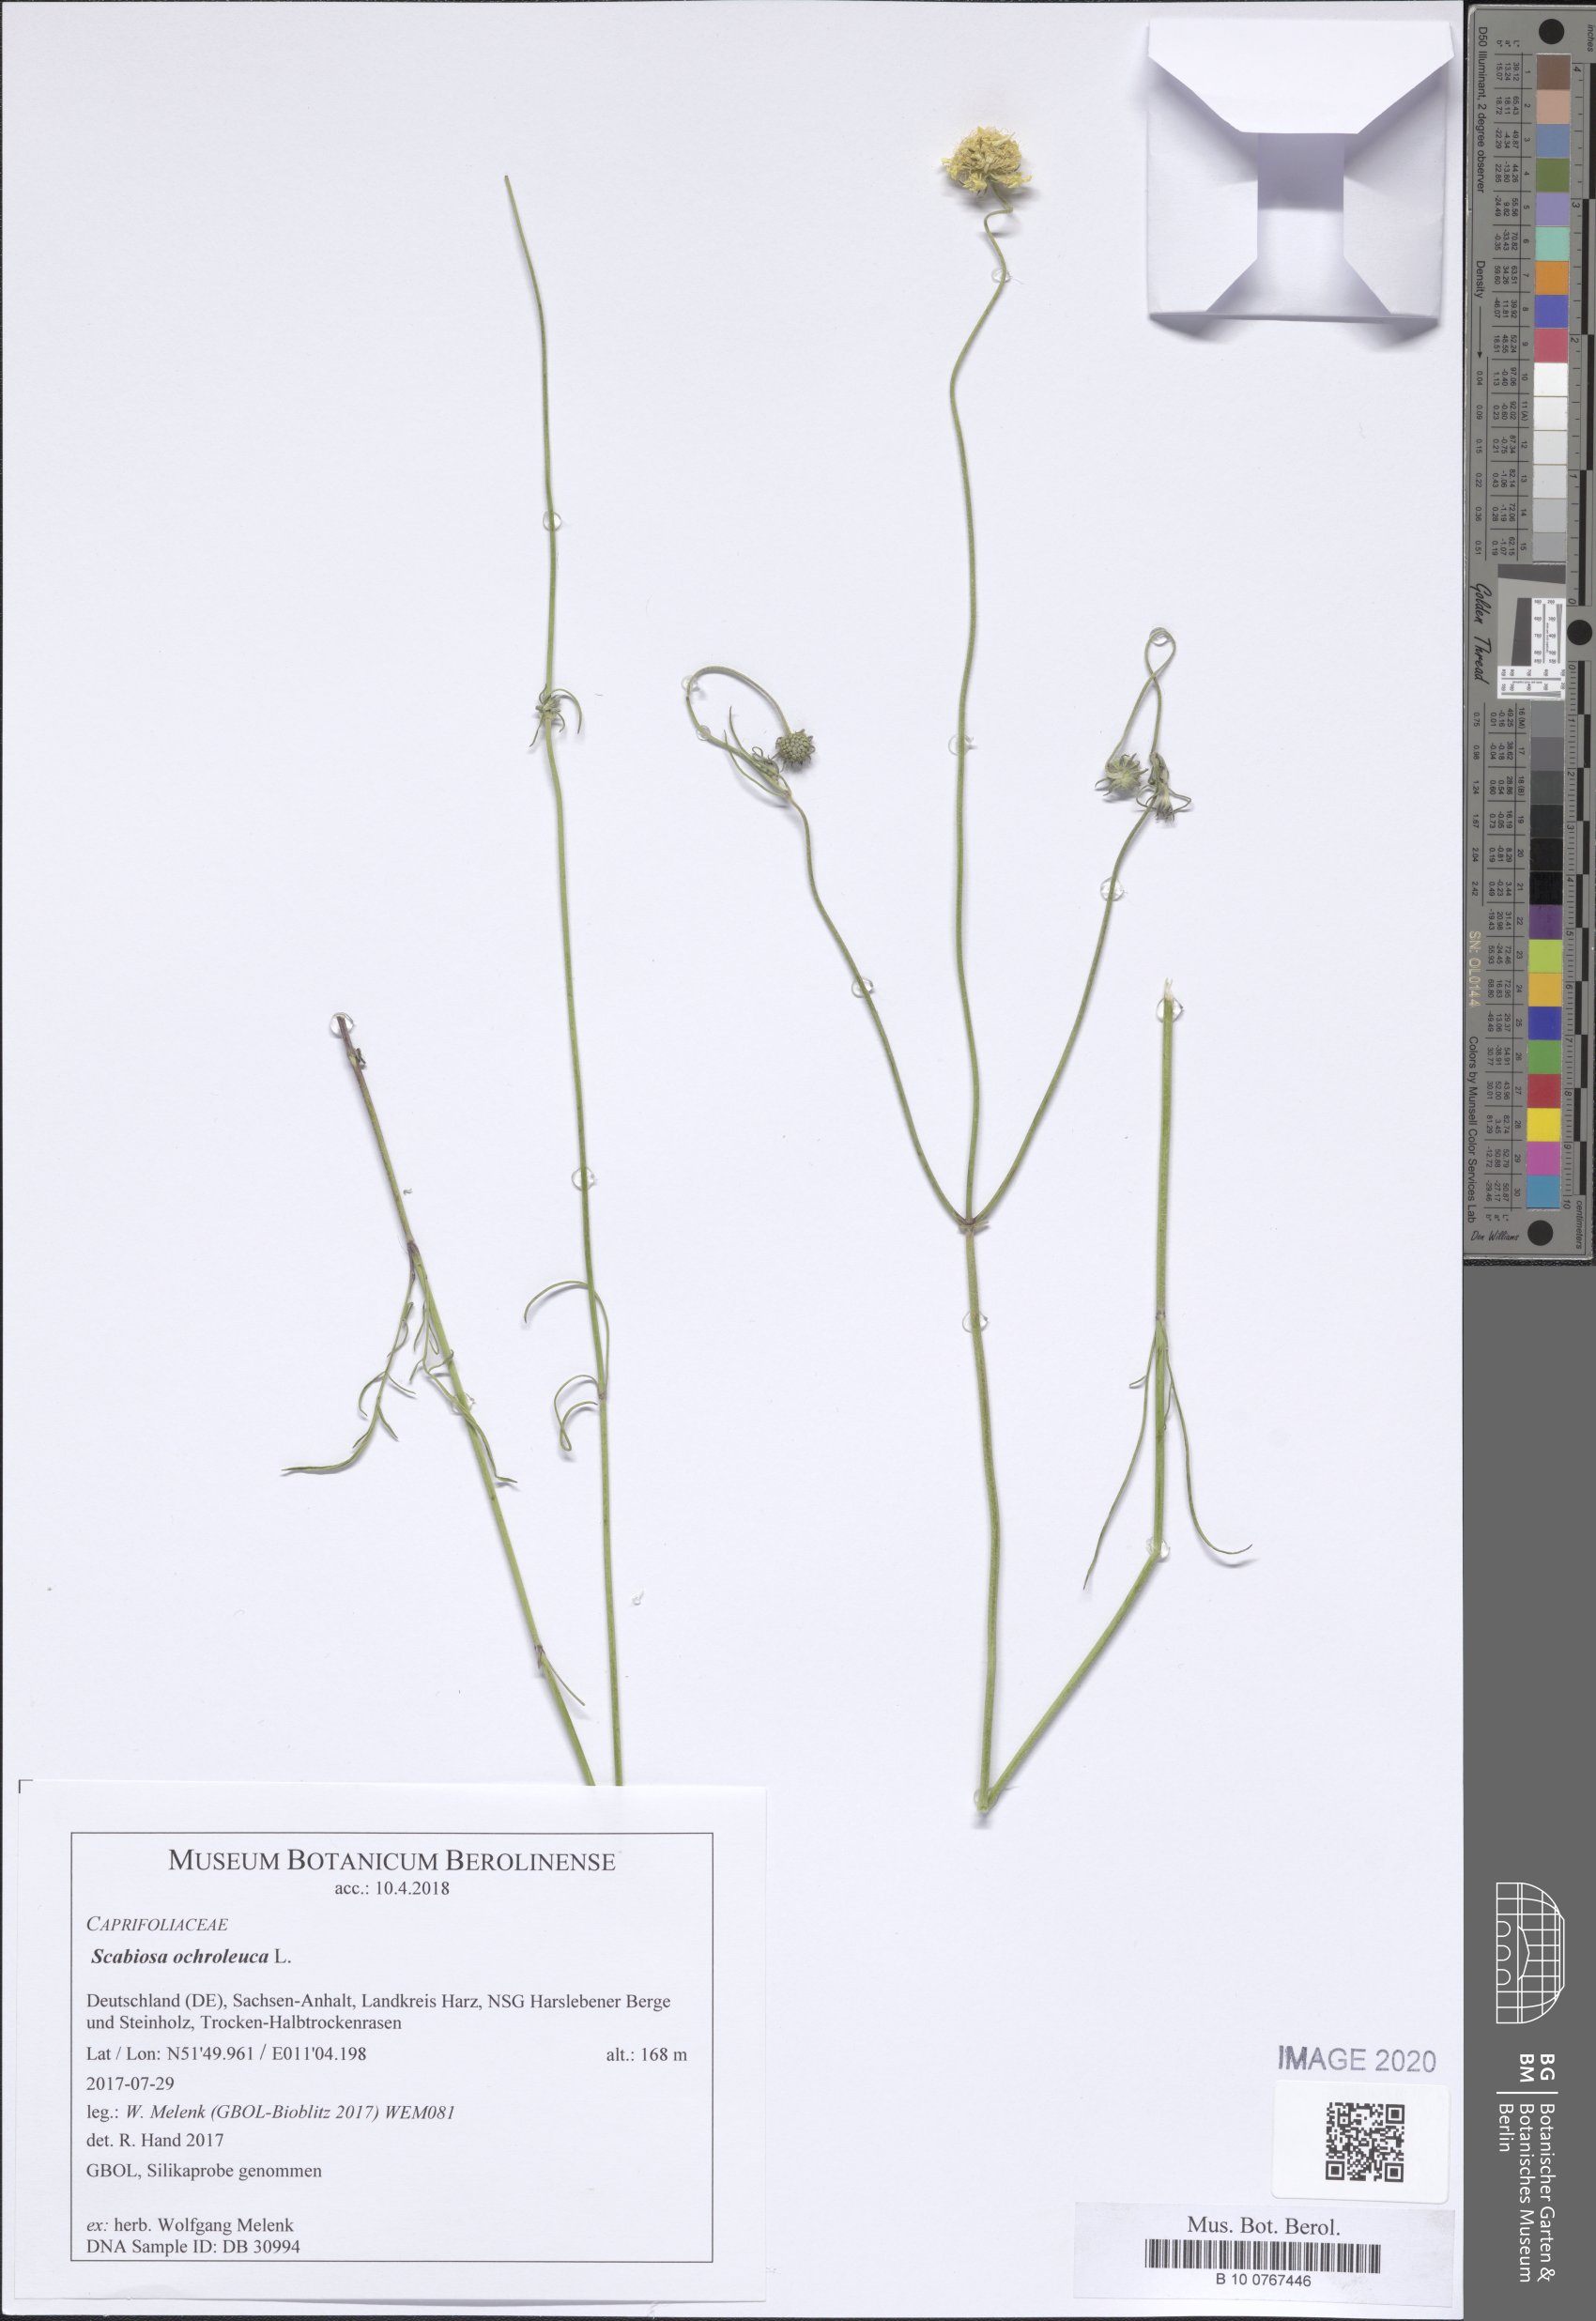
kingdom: Plantae
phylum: Tracheophyta
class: Magnoliopsida
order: Dipsacales
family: Caprifoliaceae
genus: Scabiosa
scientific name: Scabiosa ochroleuca
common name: Cream pincushions
